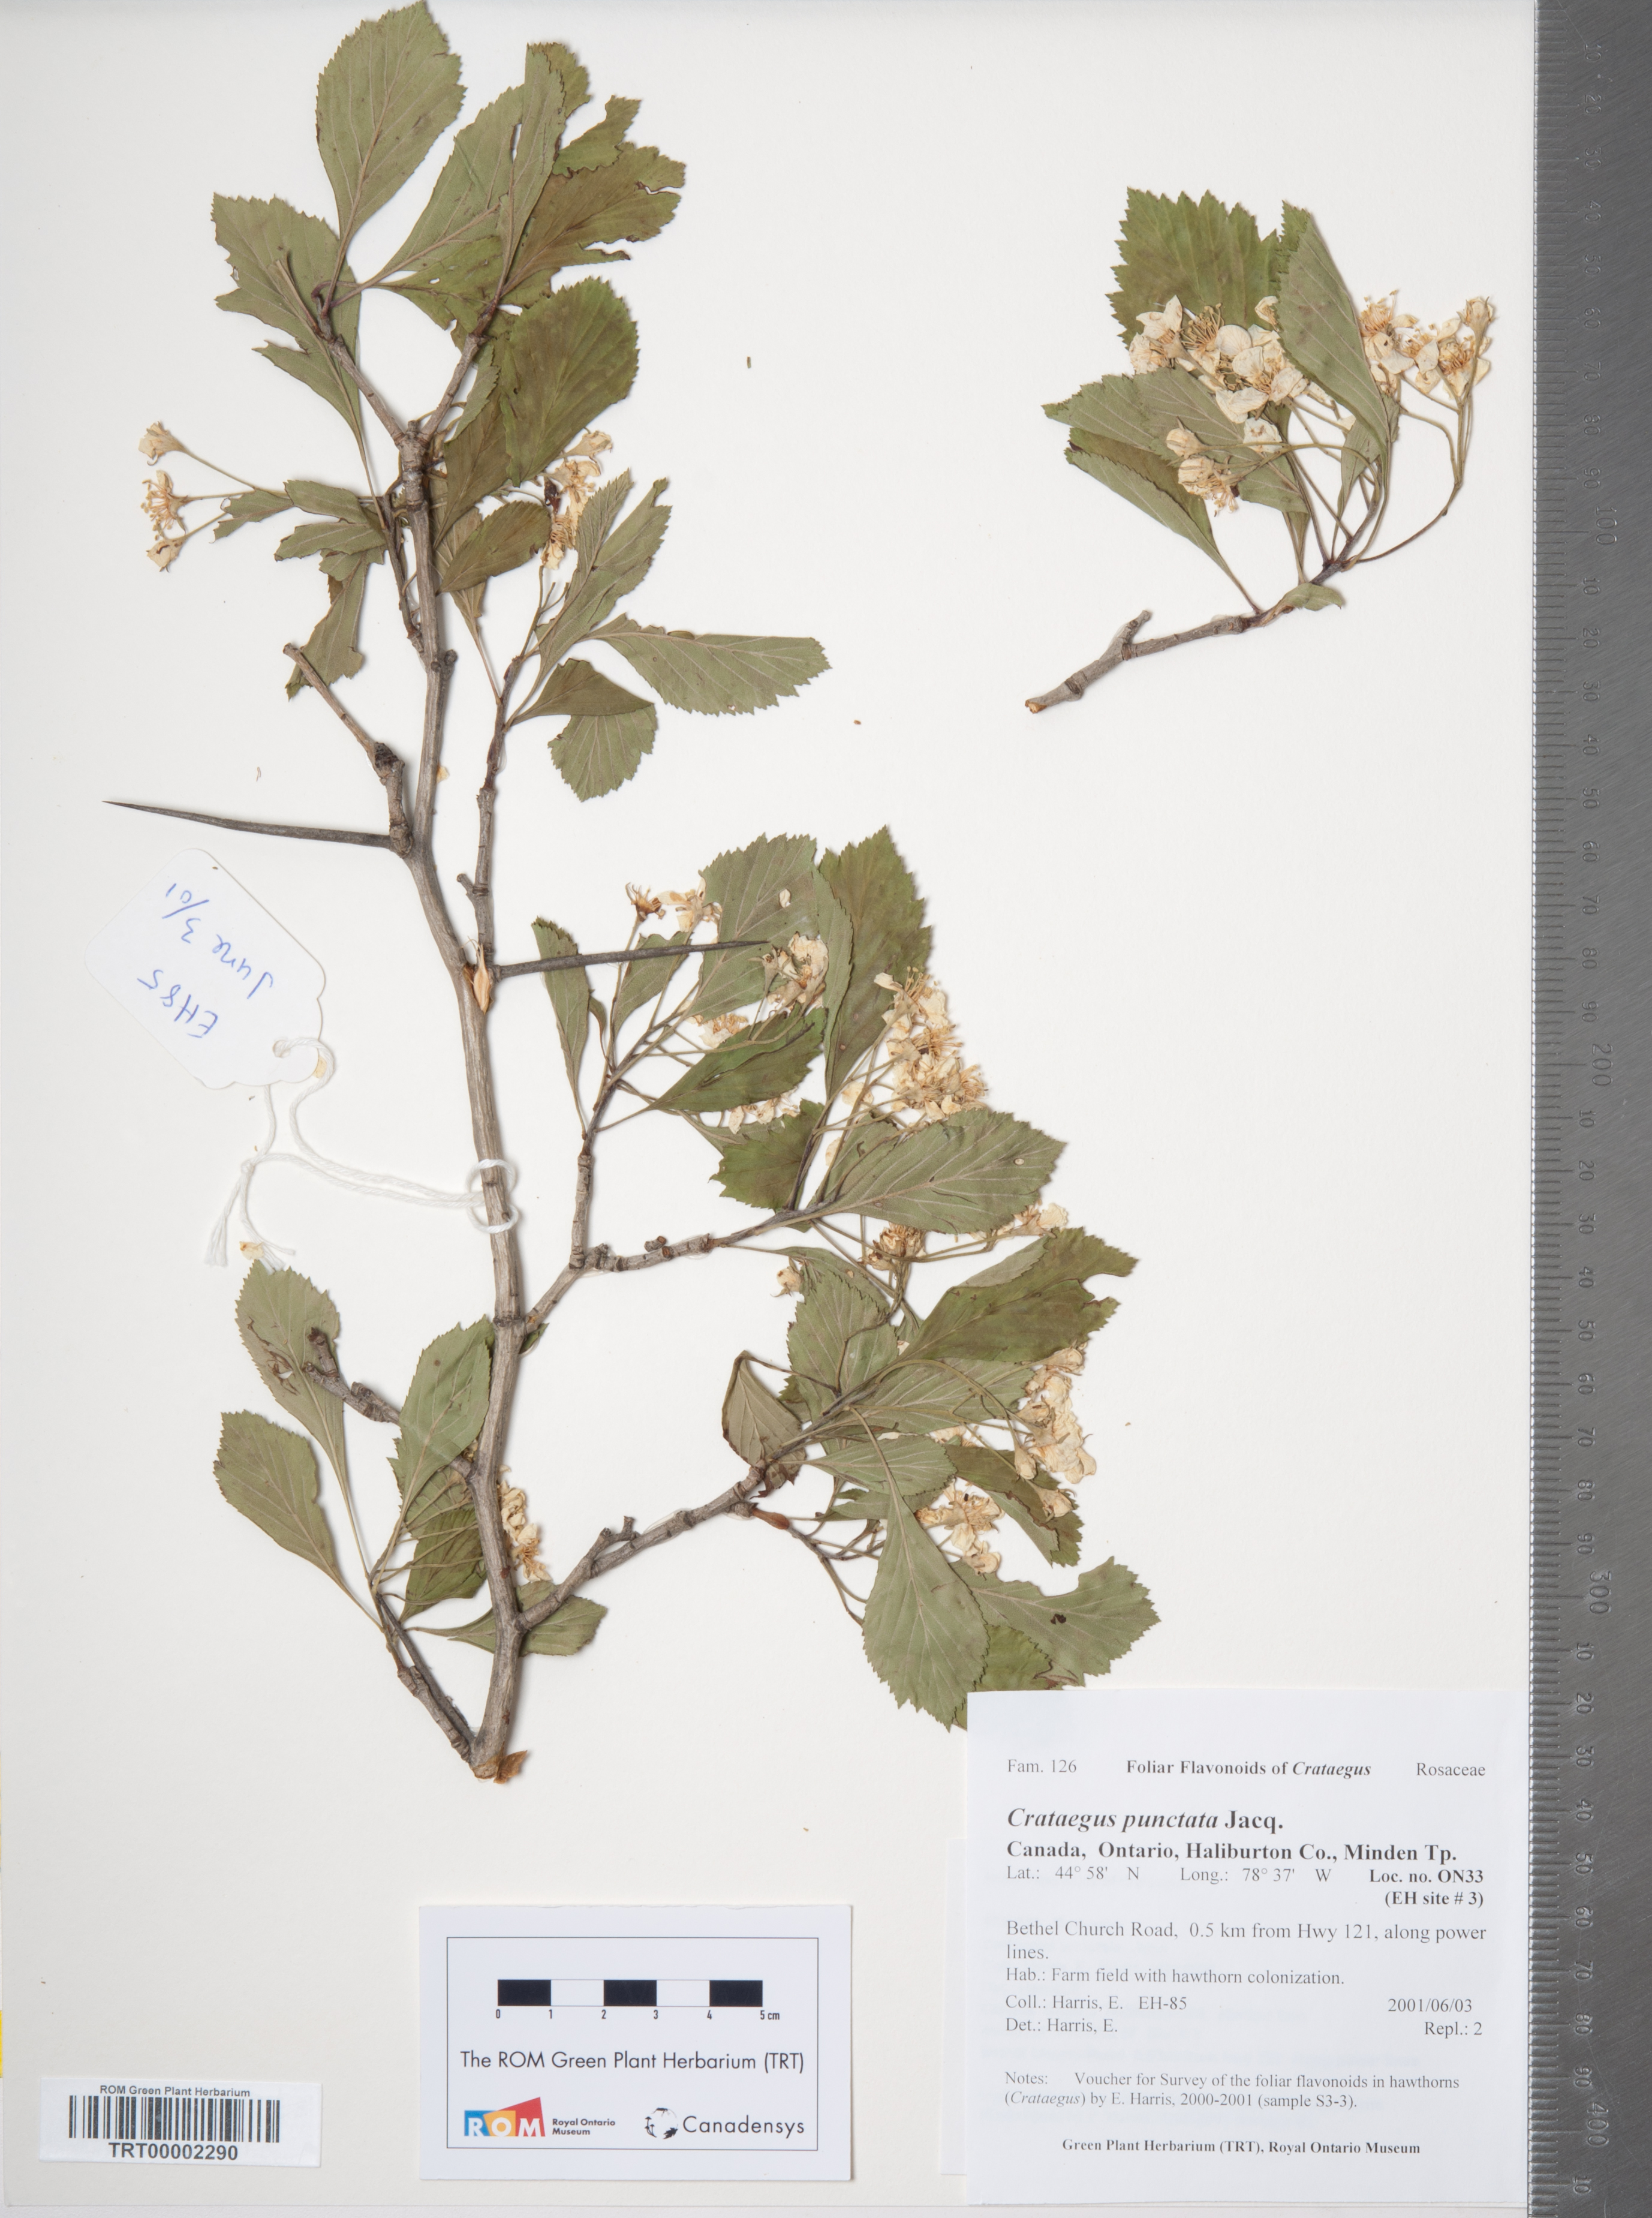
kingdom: Plantae
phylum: Tracheophyta
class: Magnoliopsida
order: Rosales
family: Rosaceae
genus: Crataegus
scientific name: Crataegus punctata
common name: Dotted hawthorn
